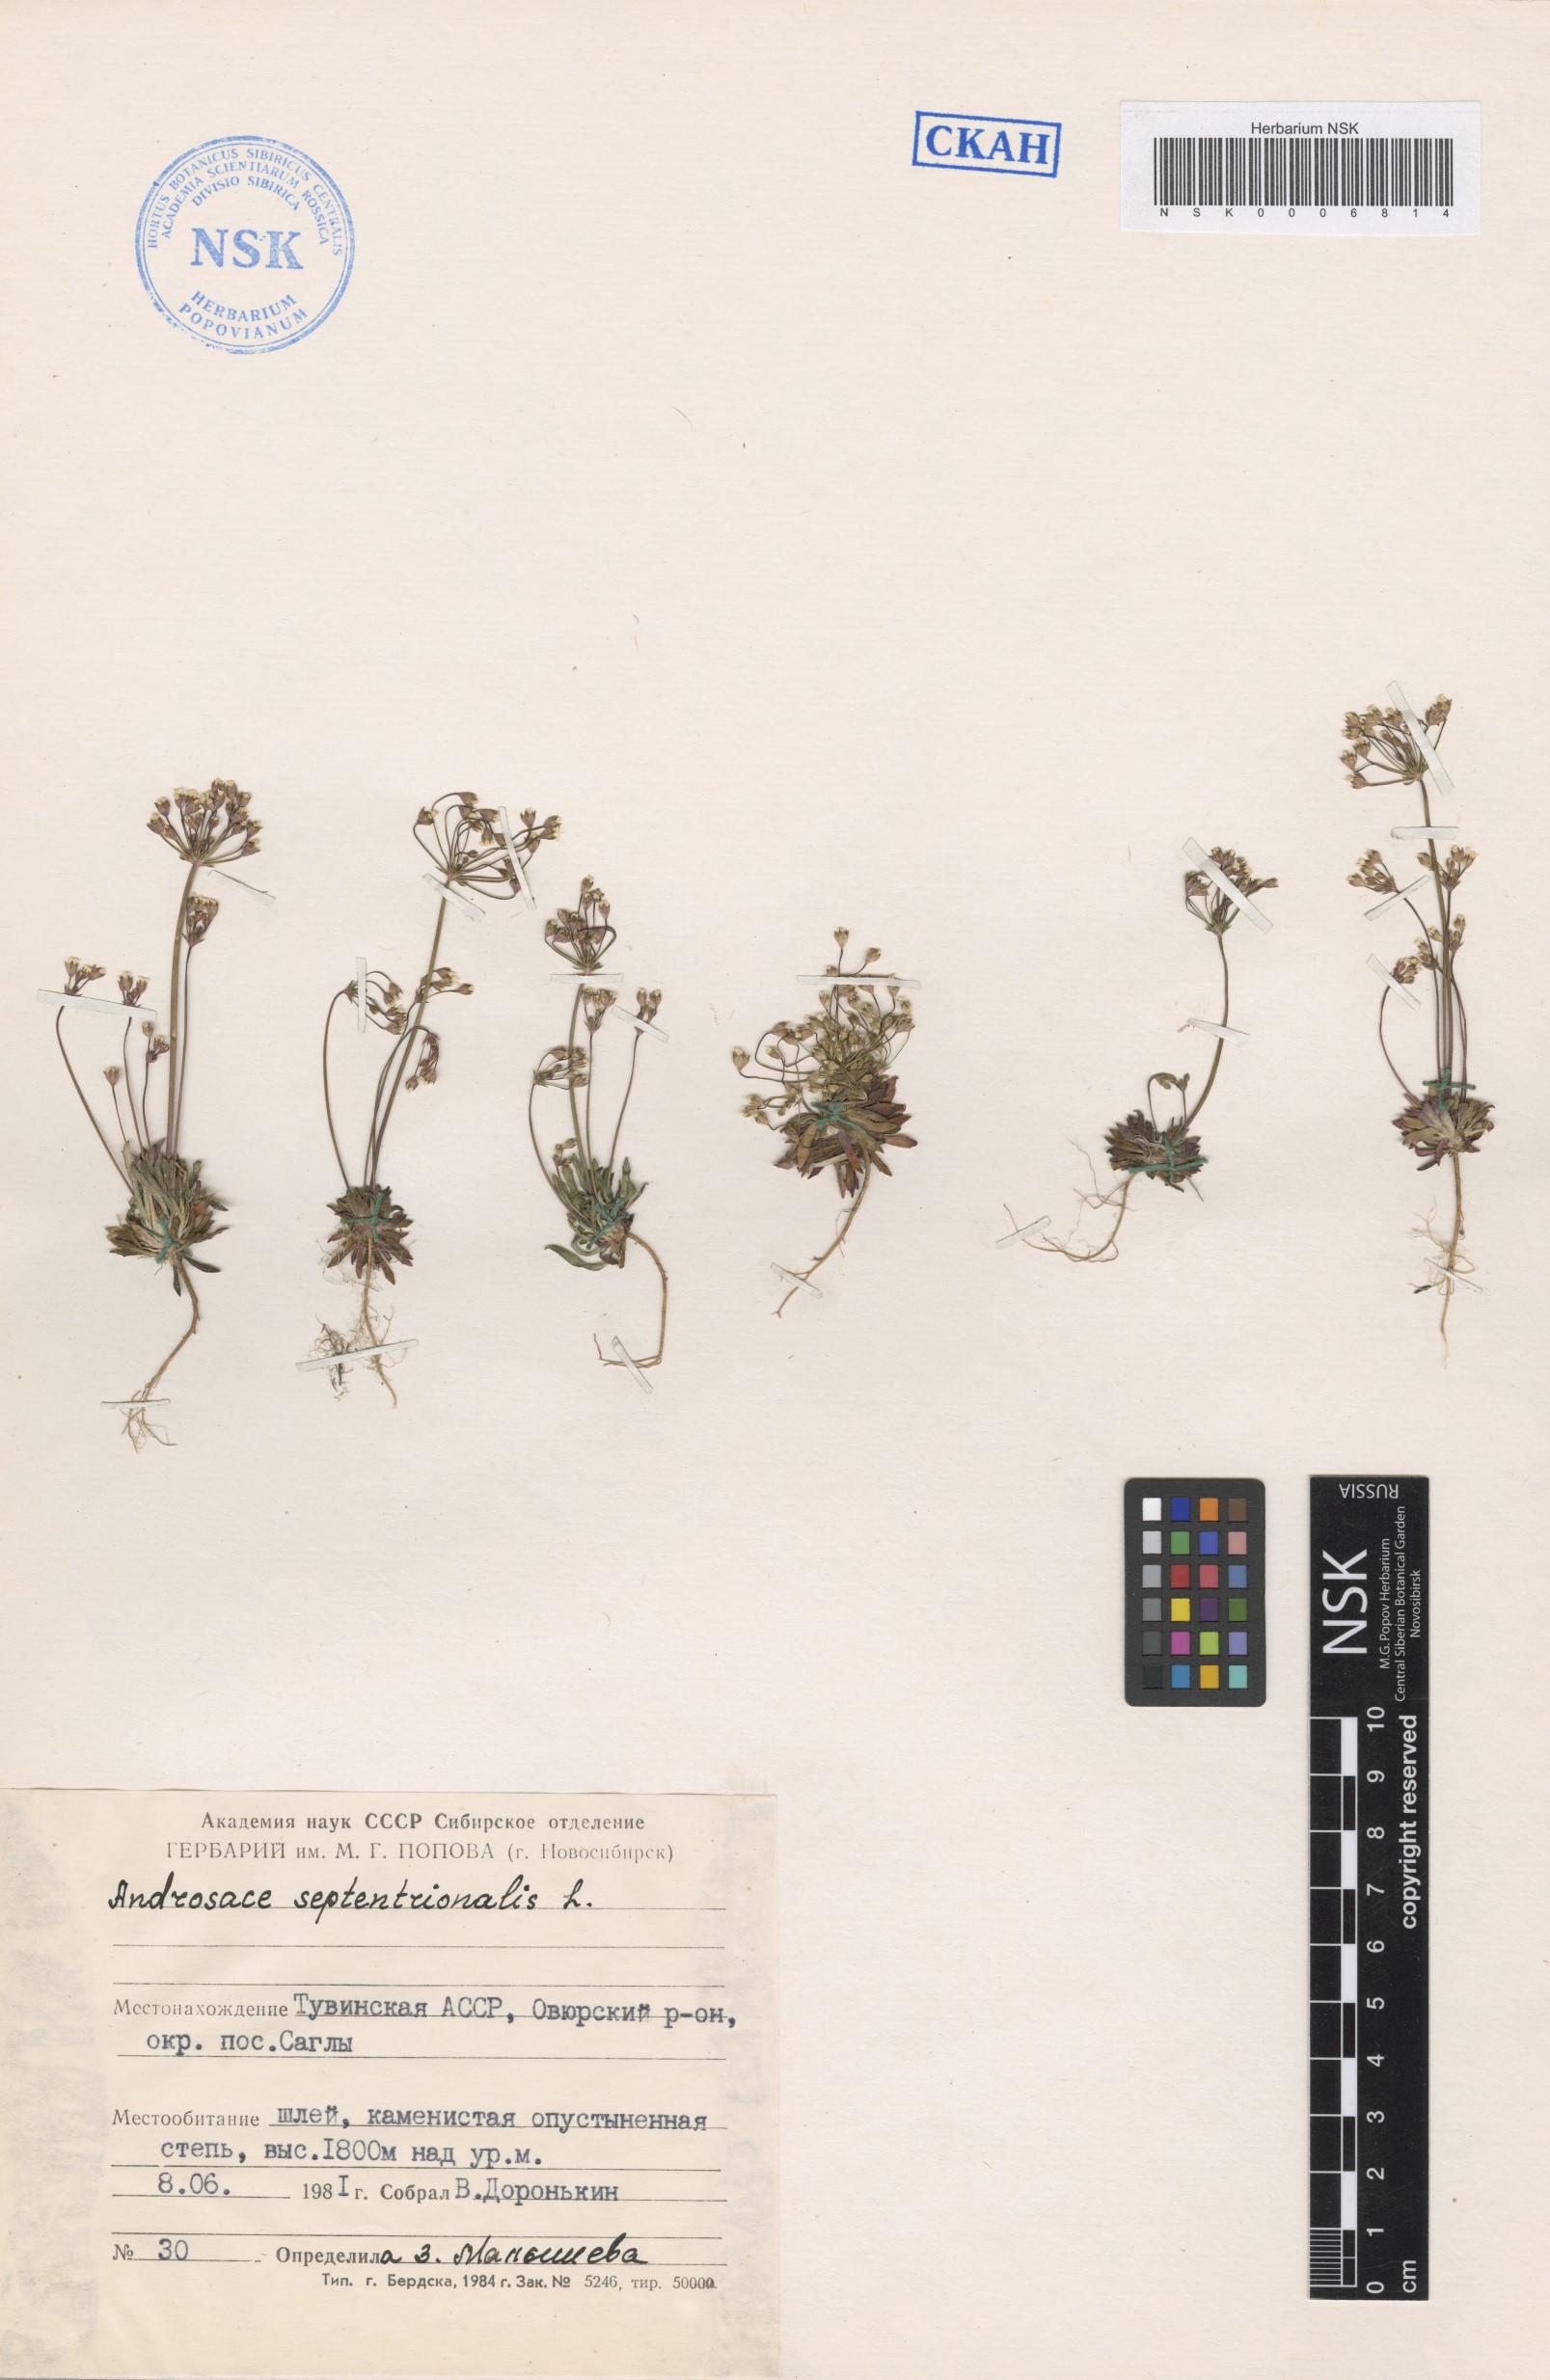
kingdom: Plantae
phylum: Tracheophyta
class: Magnoliopsida
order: Ericales
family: Primulaceae
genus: Androsace
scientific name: Androsace septentrionalis
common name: Hairy northern fairy-candelabra
